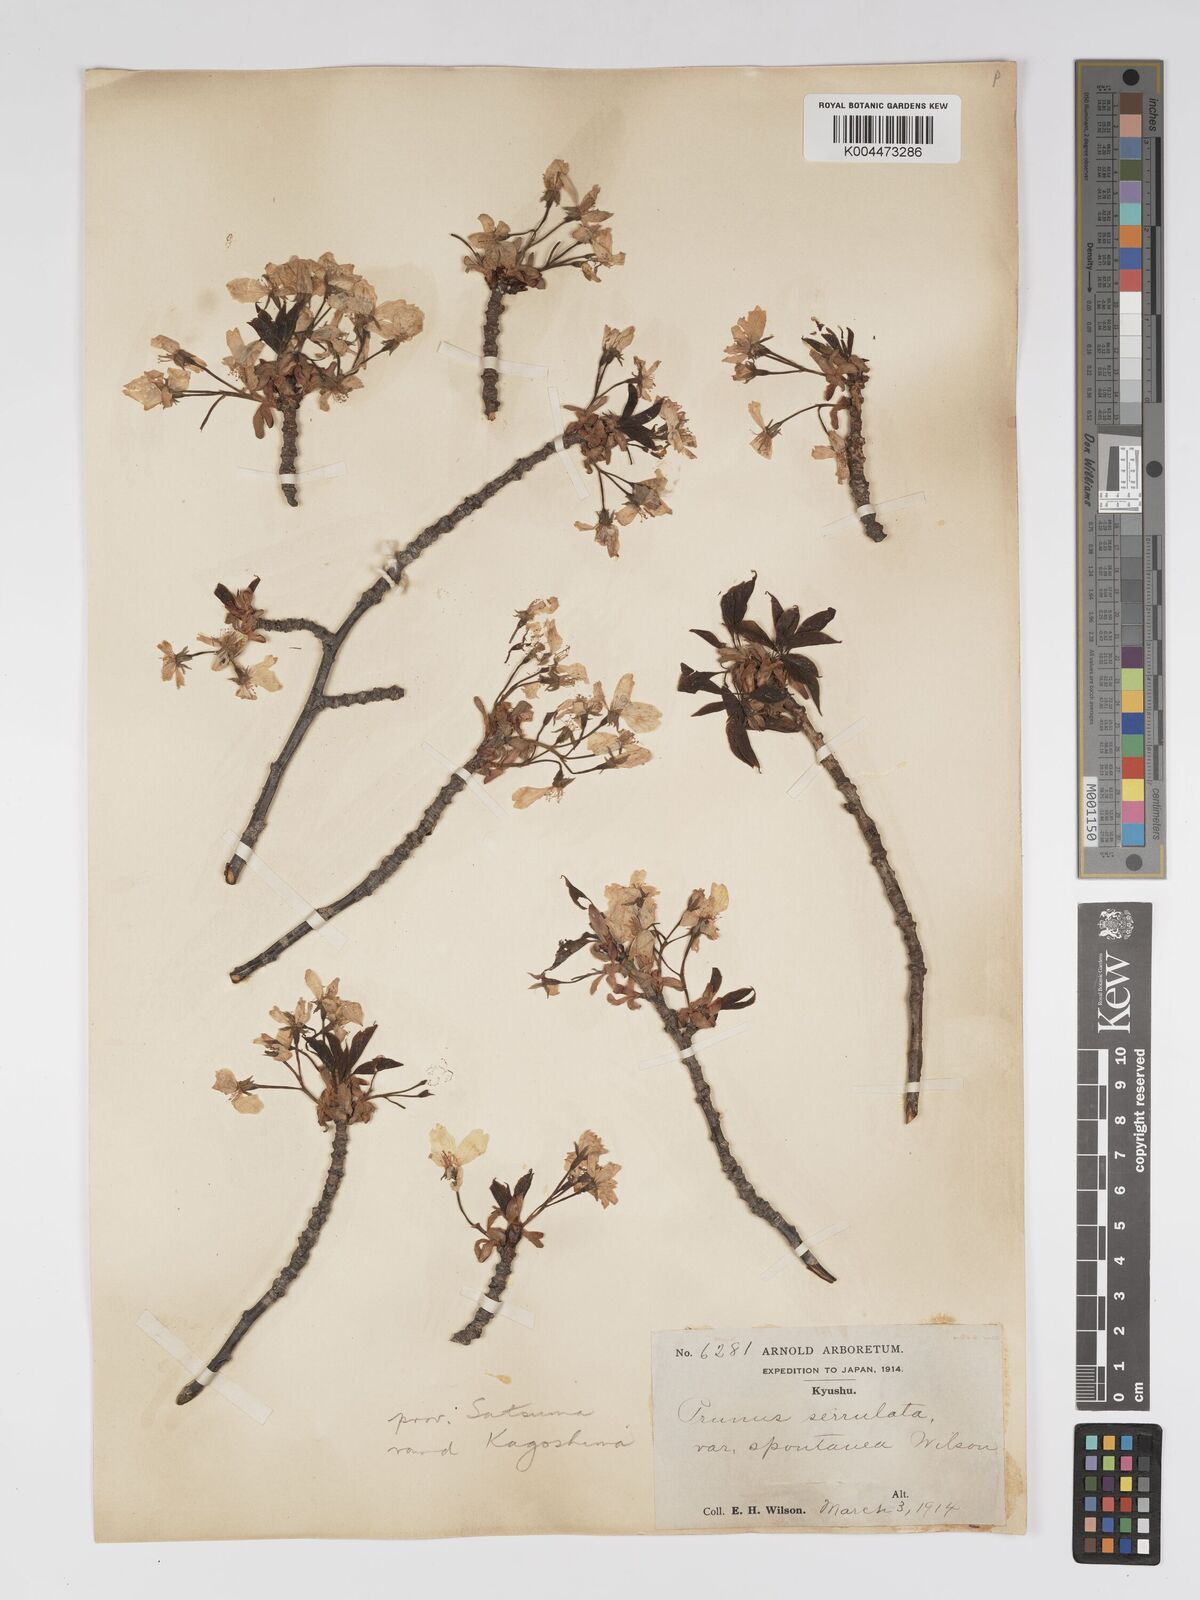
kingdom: Plantae
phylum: Tracheophyta
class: Magnoliopsida
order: Rosales
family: Rosaceae
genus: Prunus
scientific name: Prunus serrulata
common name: Japanese cherry
